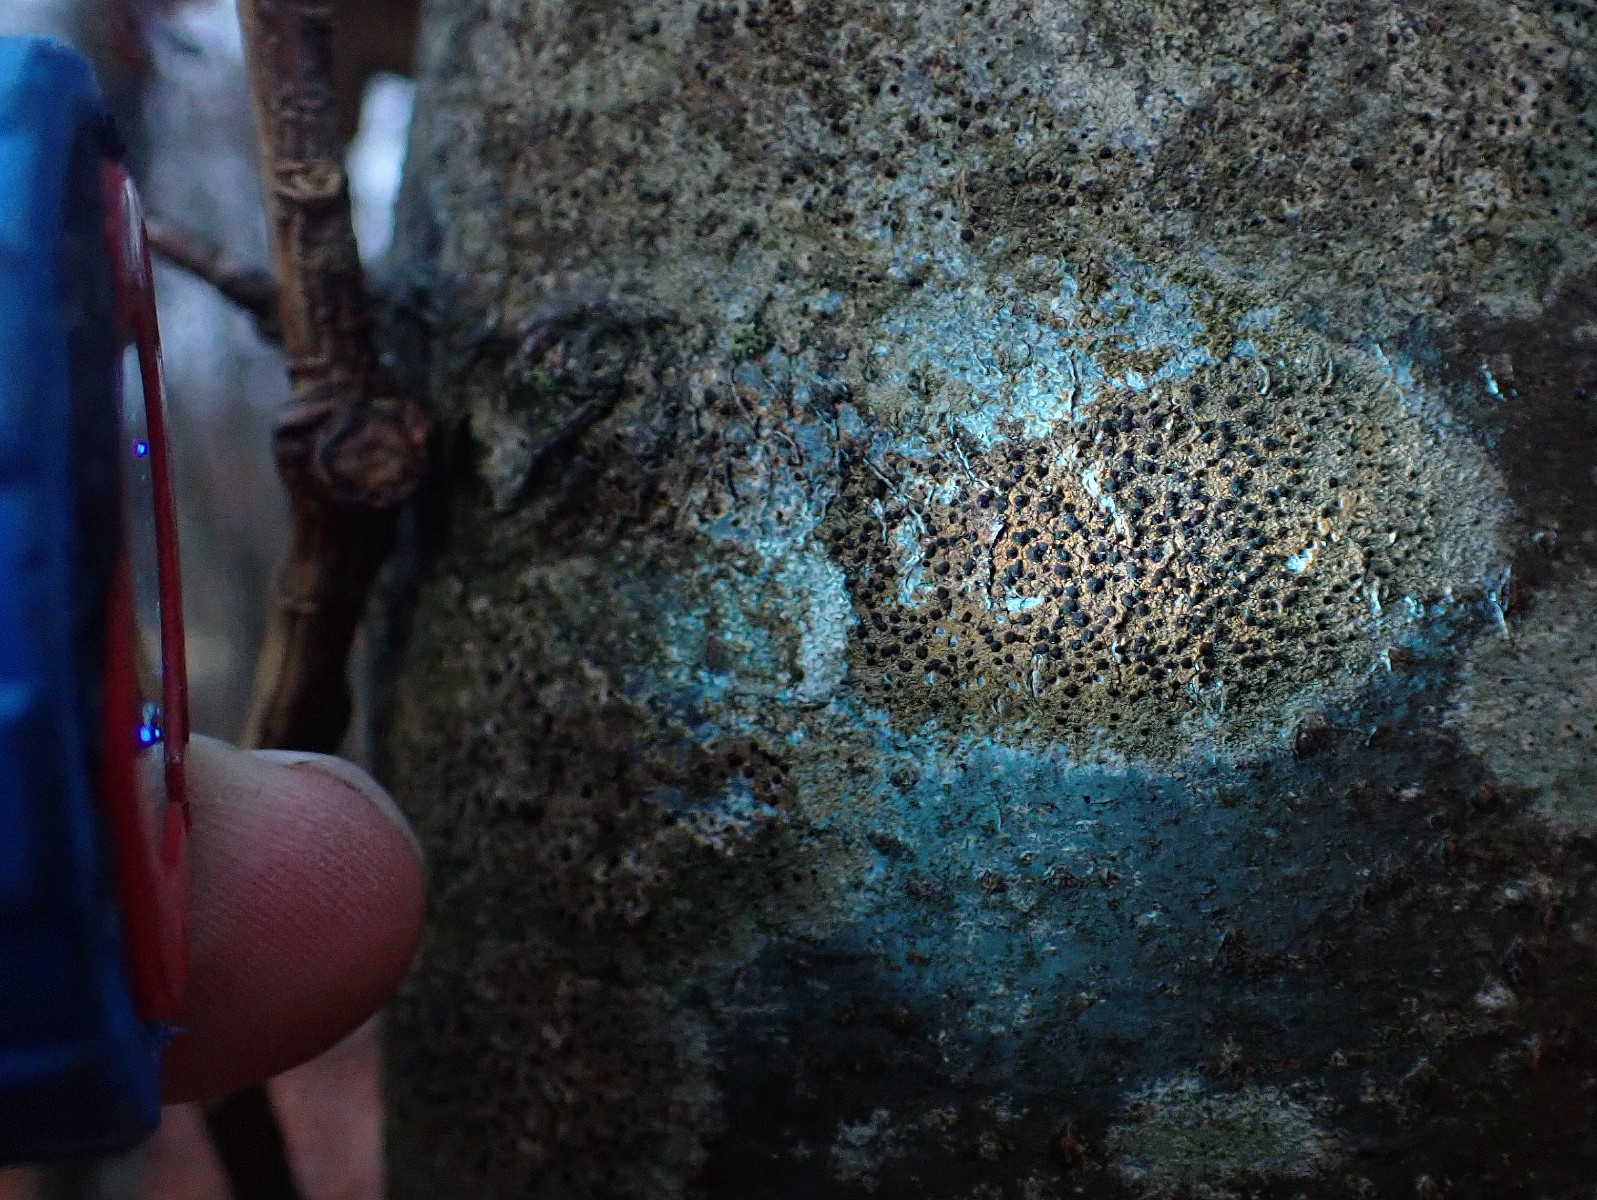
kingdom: Fungi
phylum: Ascomycota
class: Lecanoromycetes
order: Lecanorales
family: Lecanoraceae
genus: Lecidella
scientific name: Lecidella elaeochroma
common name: grågrøn skivelav
